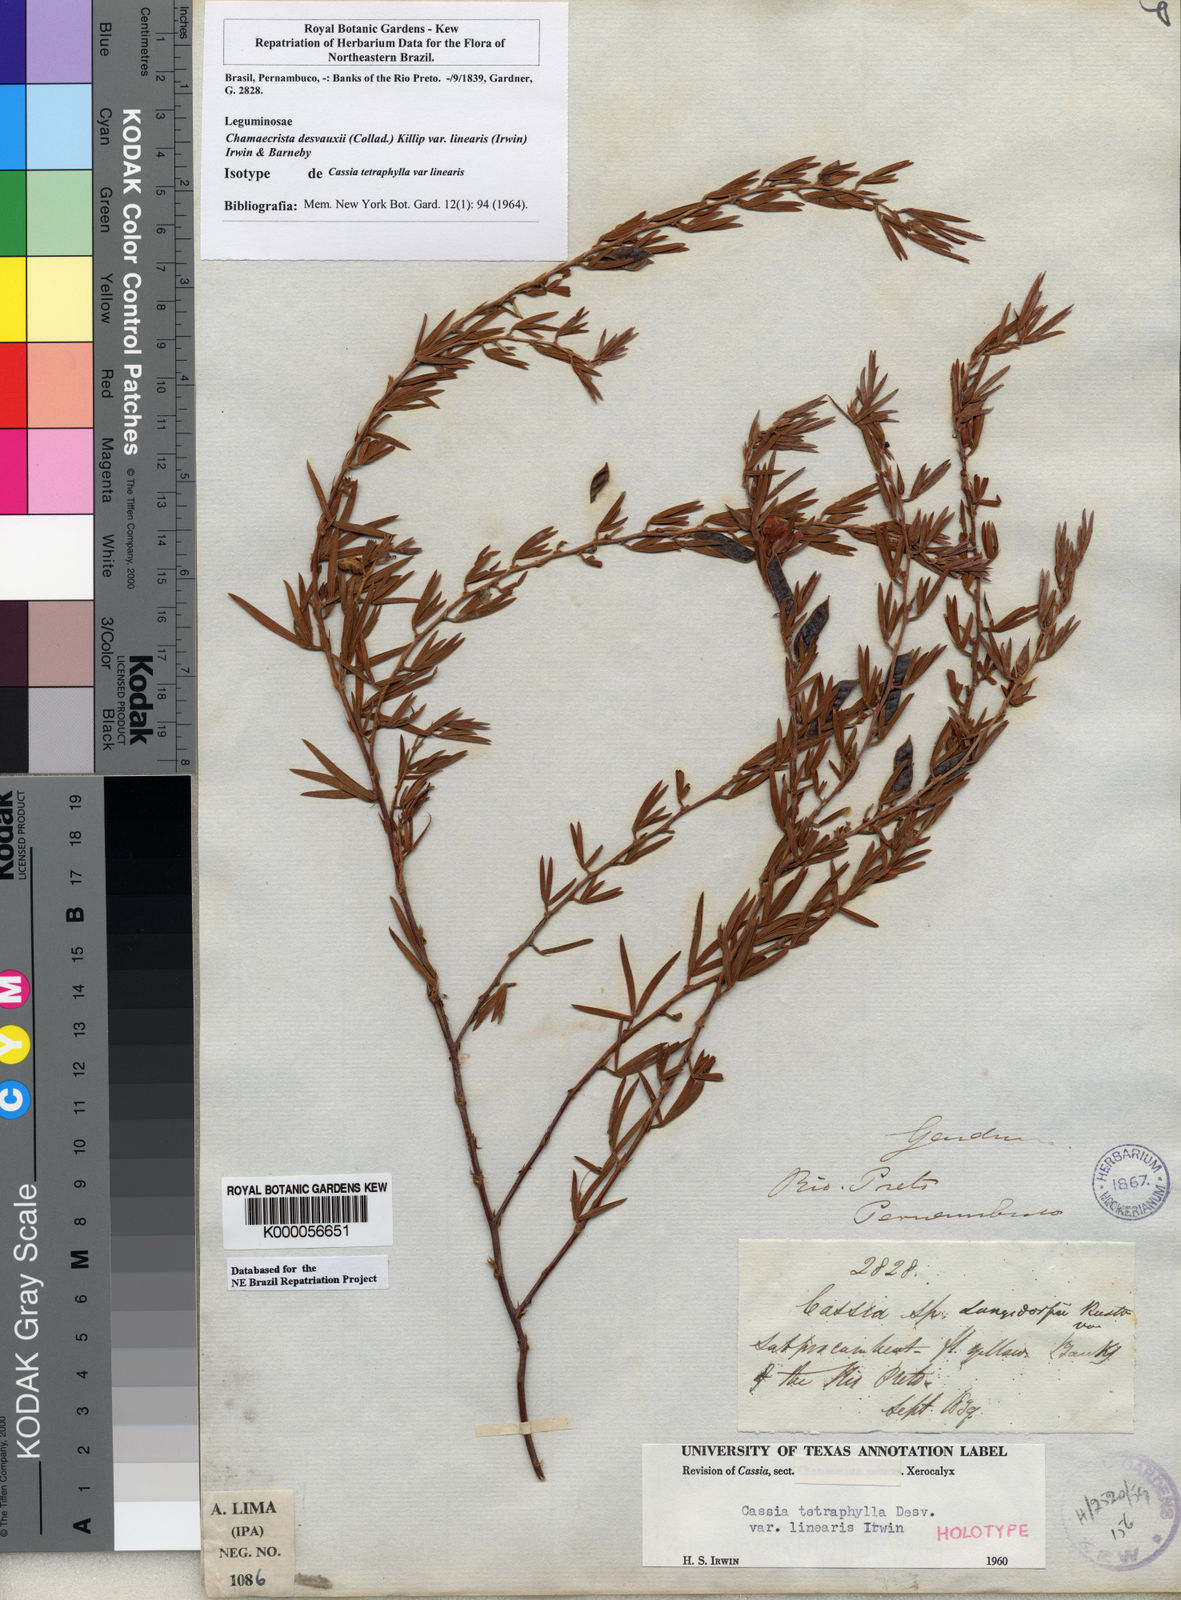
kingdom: Plantae
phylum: Tracheophyta
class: Magnoliopsida
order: Fabales
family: Fabaceae
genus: Chamaecrista
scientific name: Chamaecrista desvauxii
